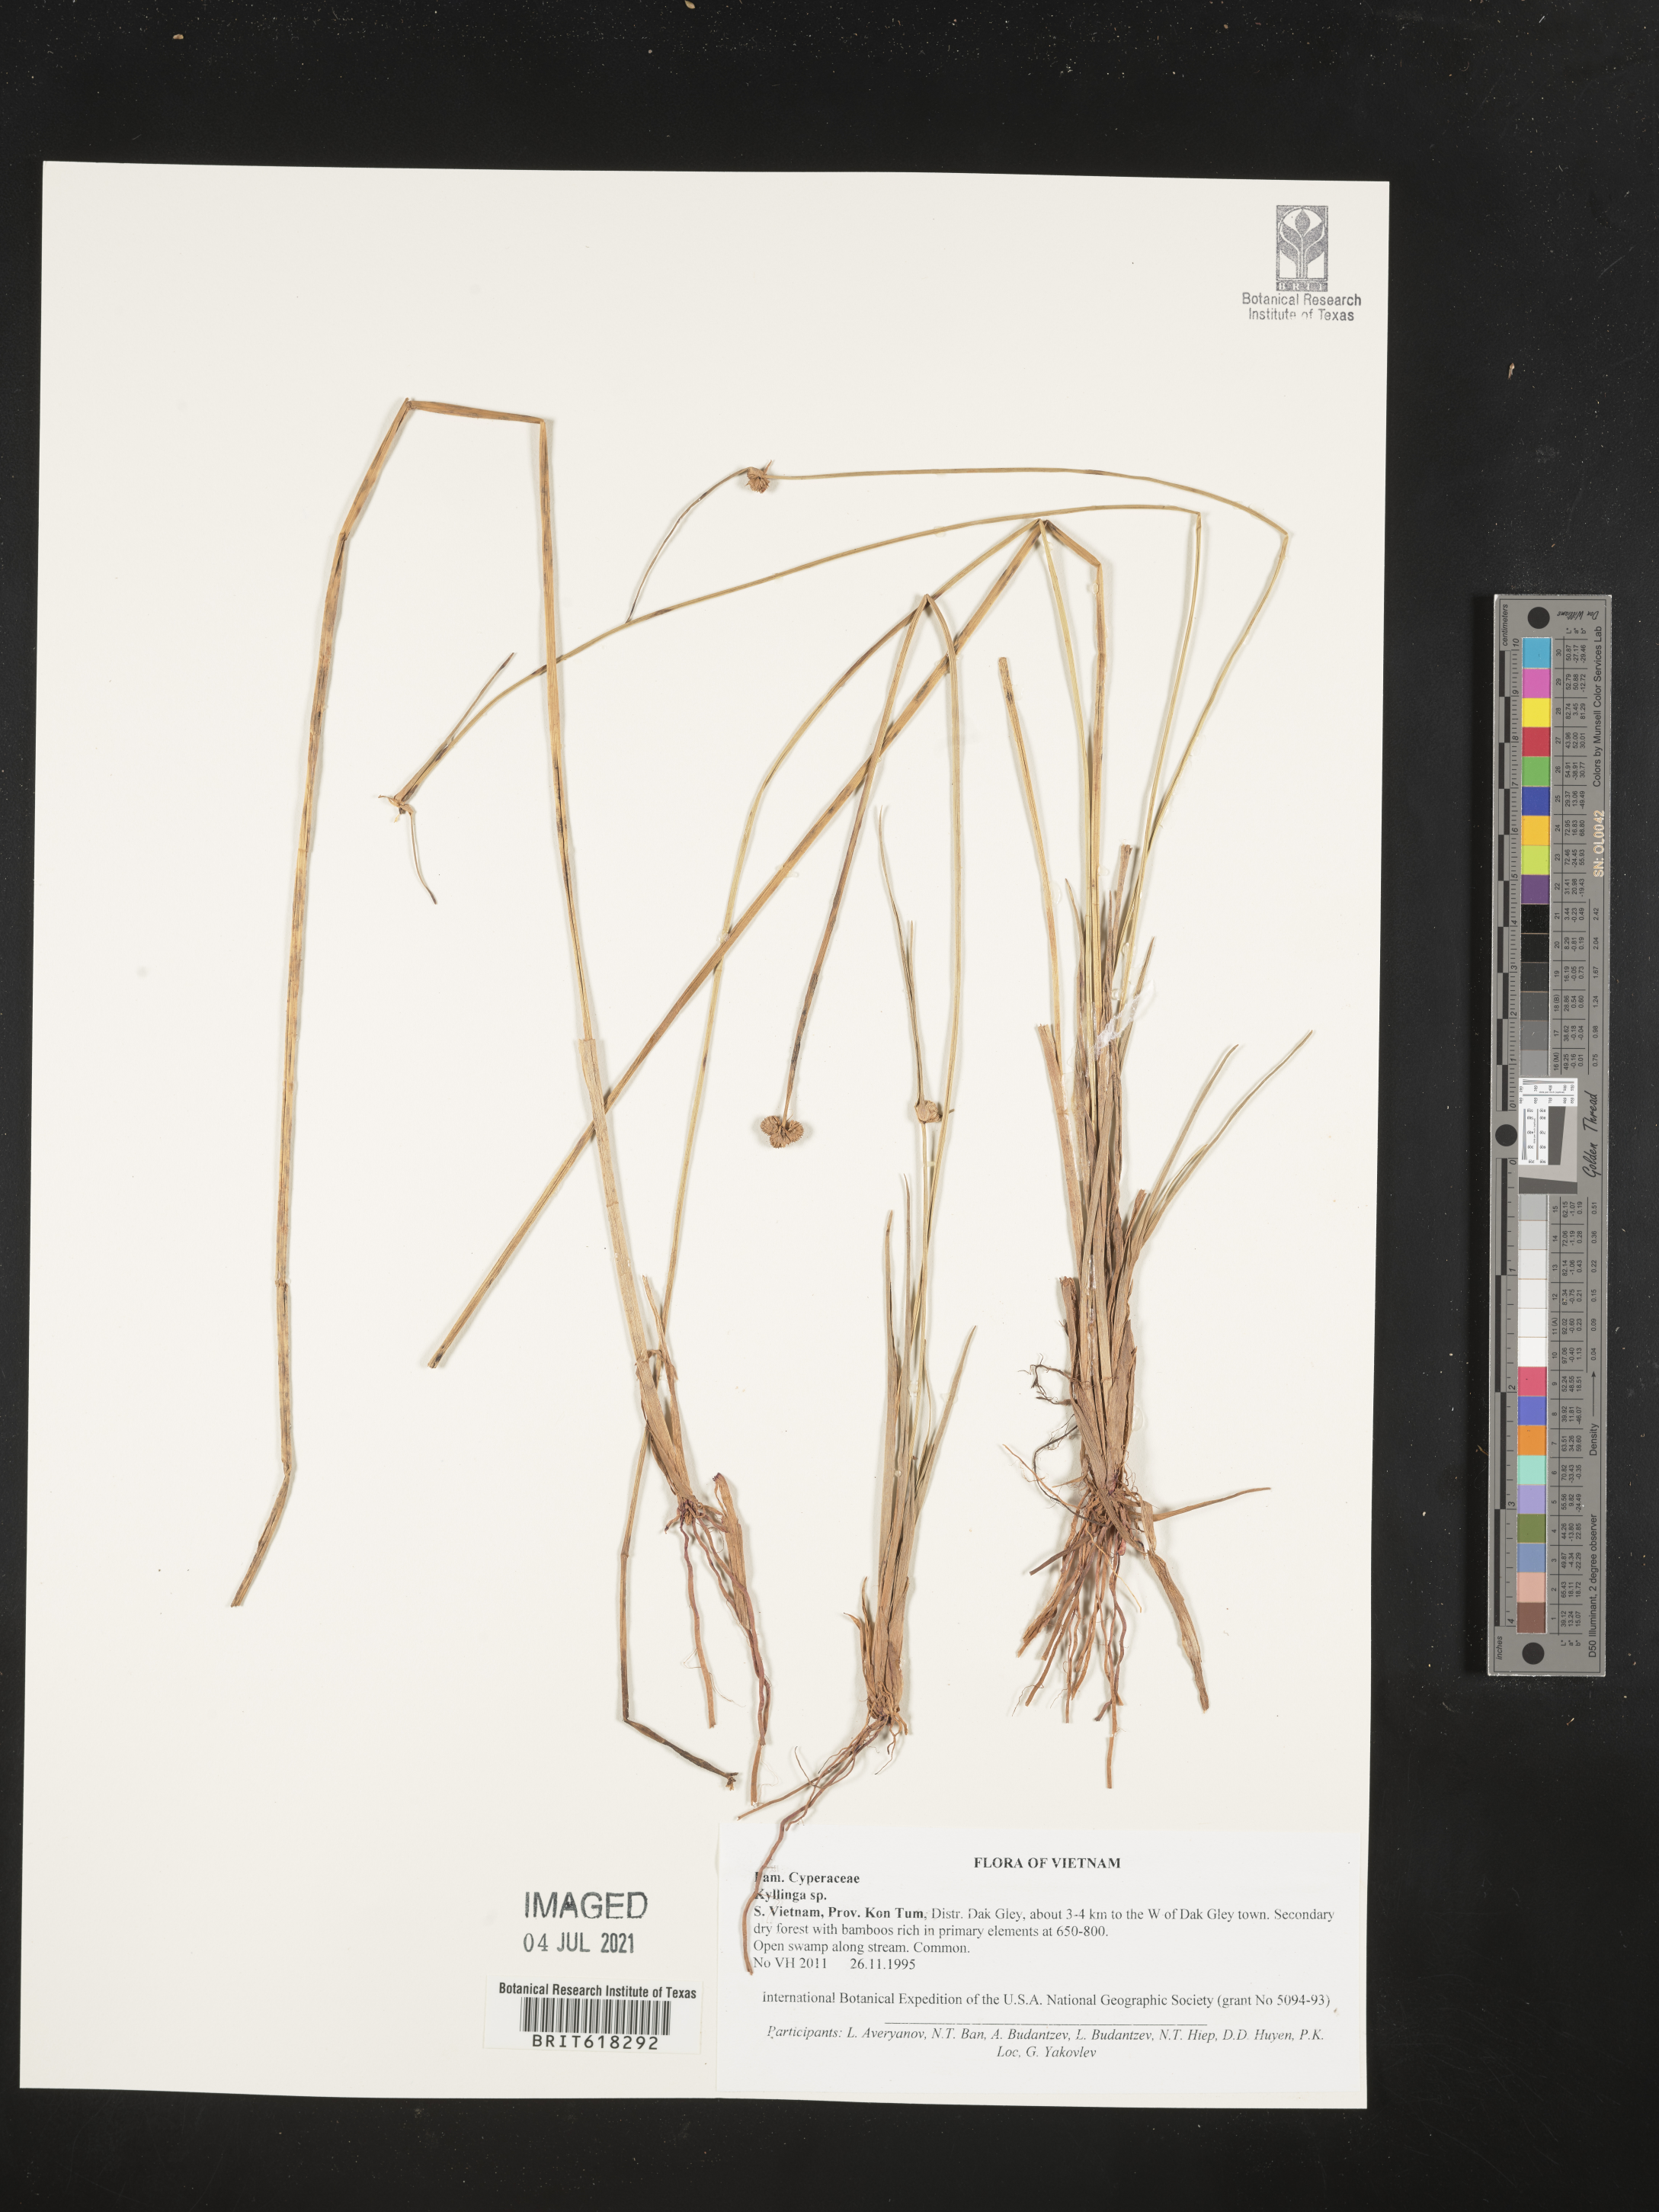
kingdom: Plantae
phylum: Tracheophyta
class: Liliopsida
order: Poales
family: Cyperaceae
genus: Cyperus
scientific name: Cyperus
